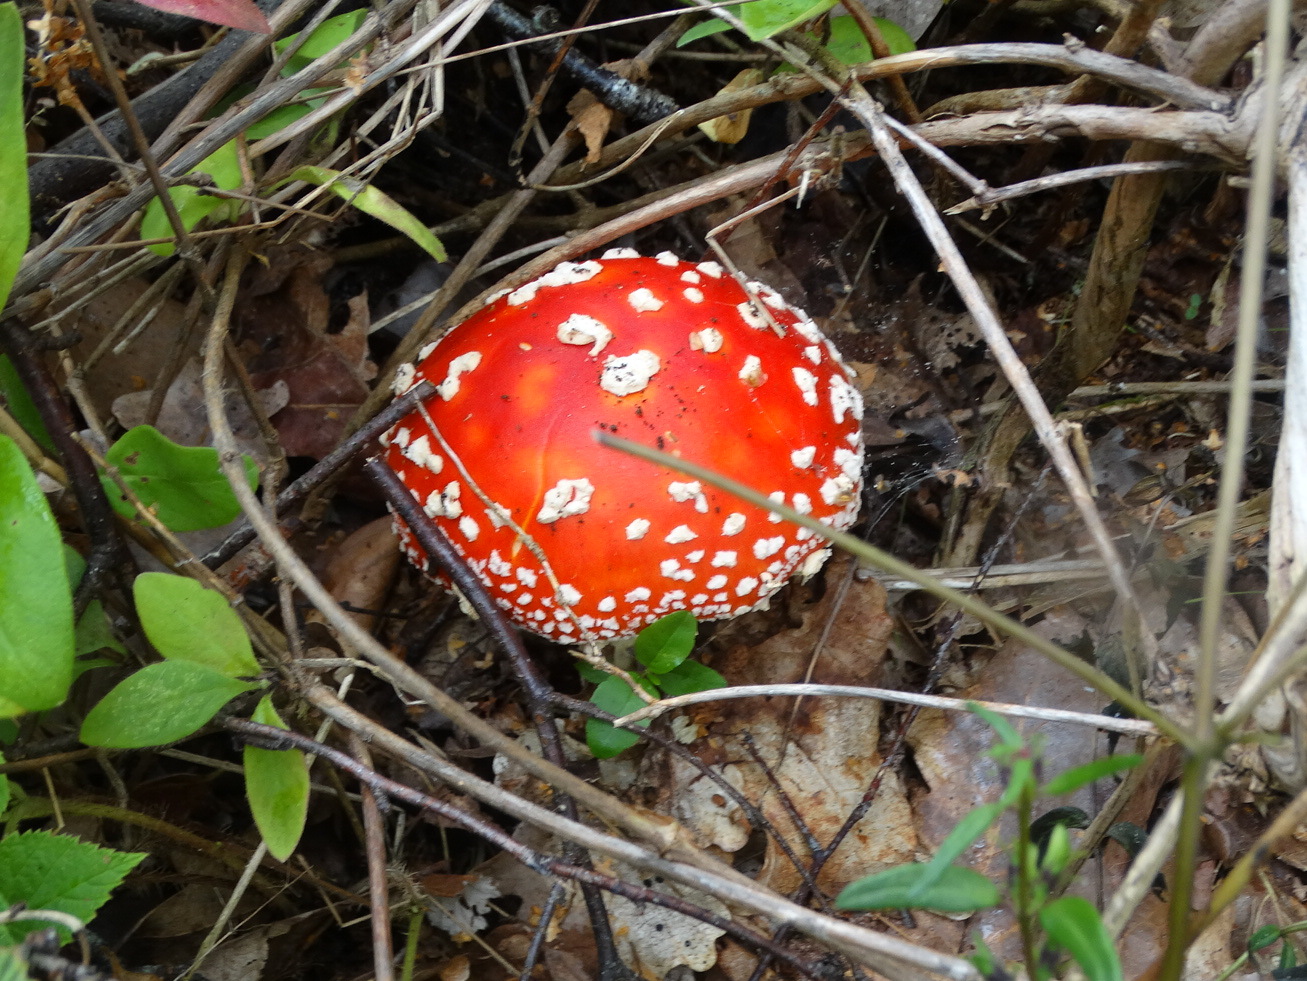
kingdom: Fungi
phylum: Basidiomycota
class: Agaricomycetes
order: Agaricales
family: Amanitaceae
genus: Amanita
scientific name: Amanita muscaria
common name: rød fluesvamp
